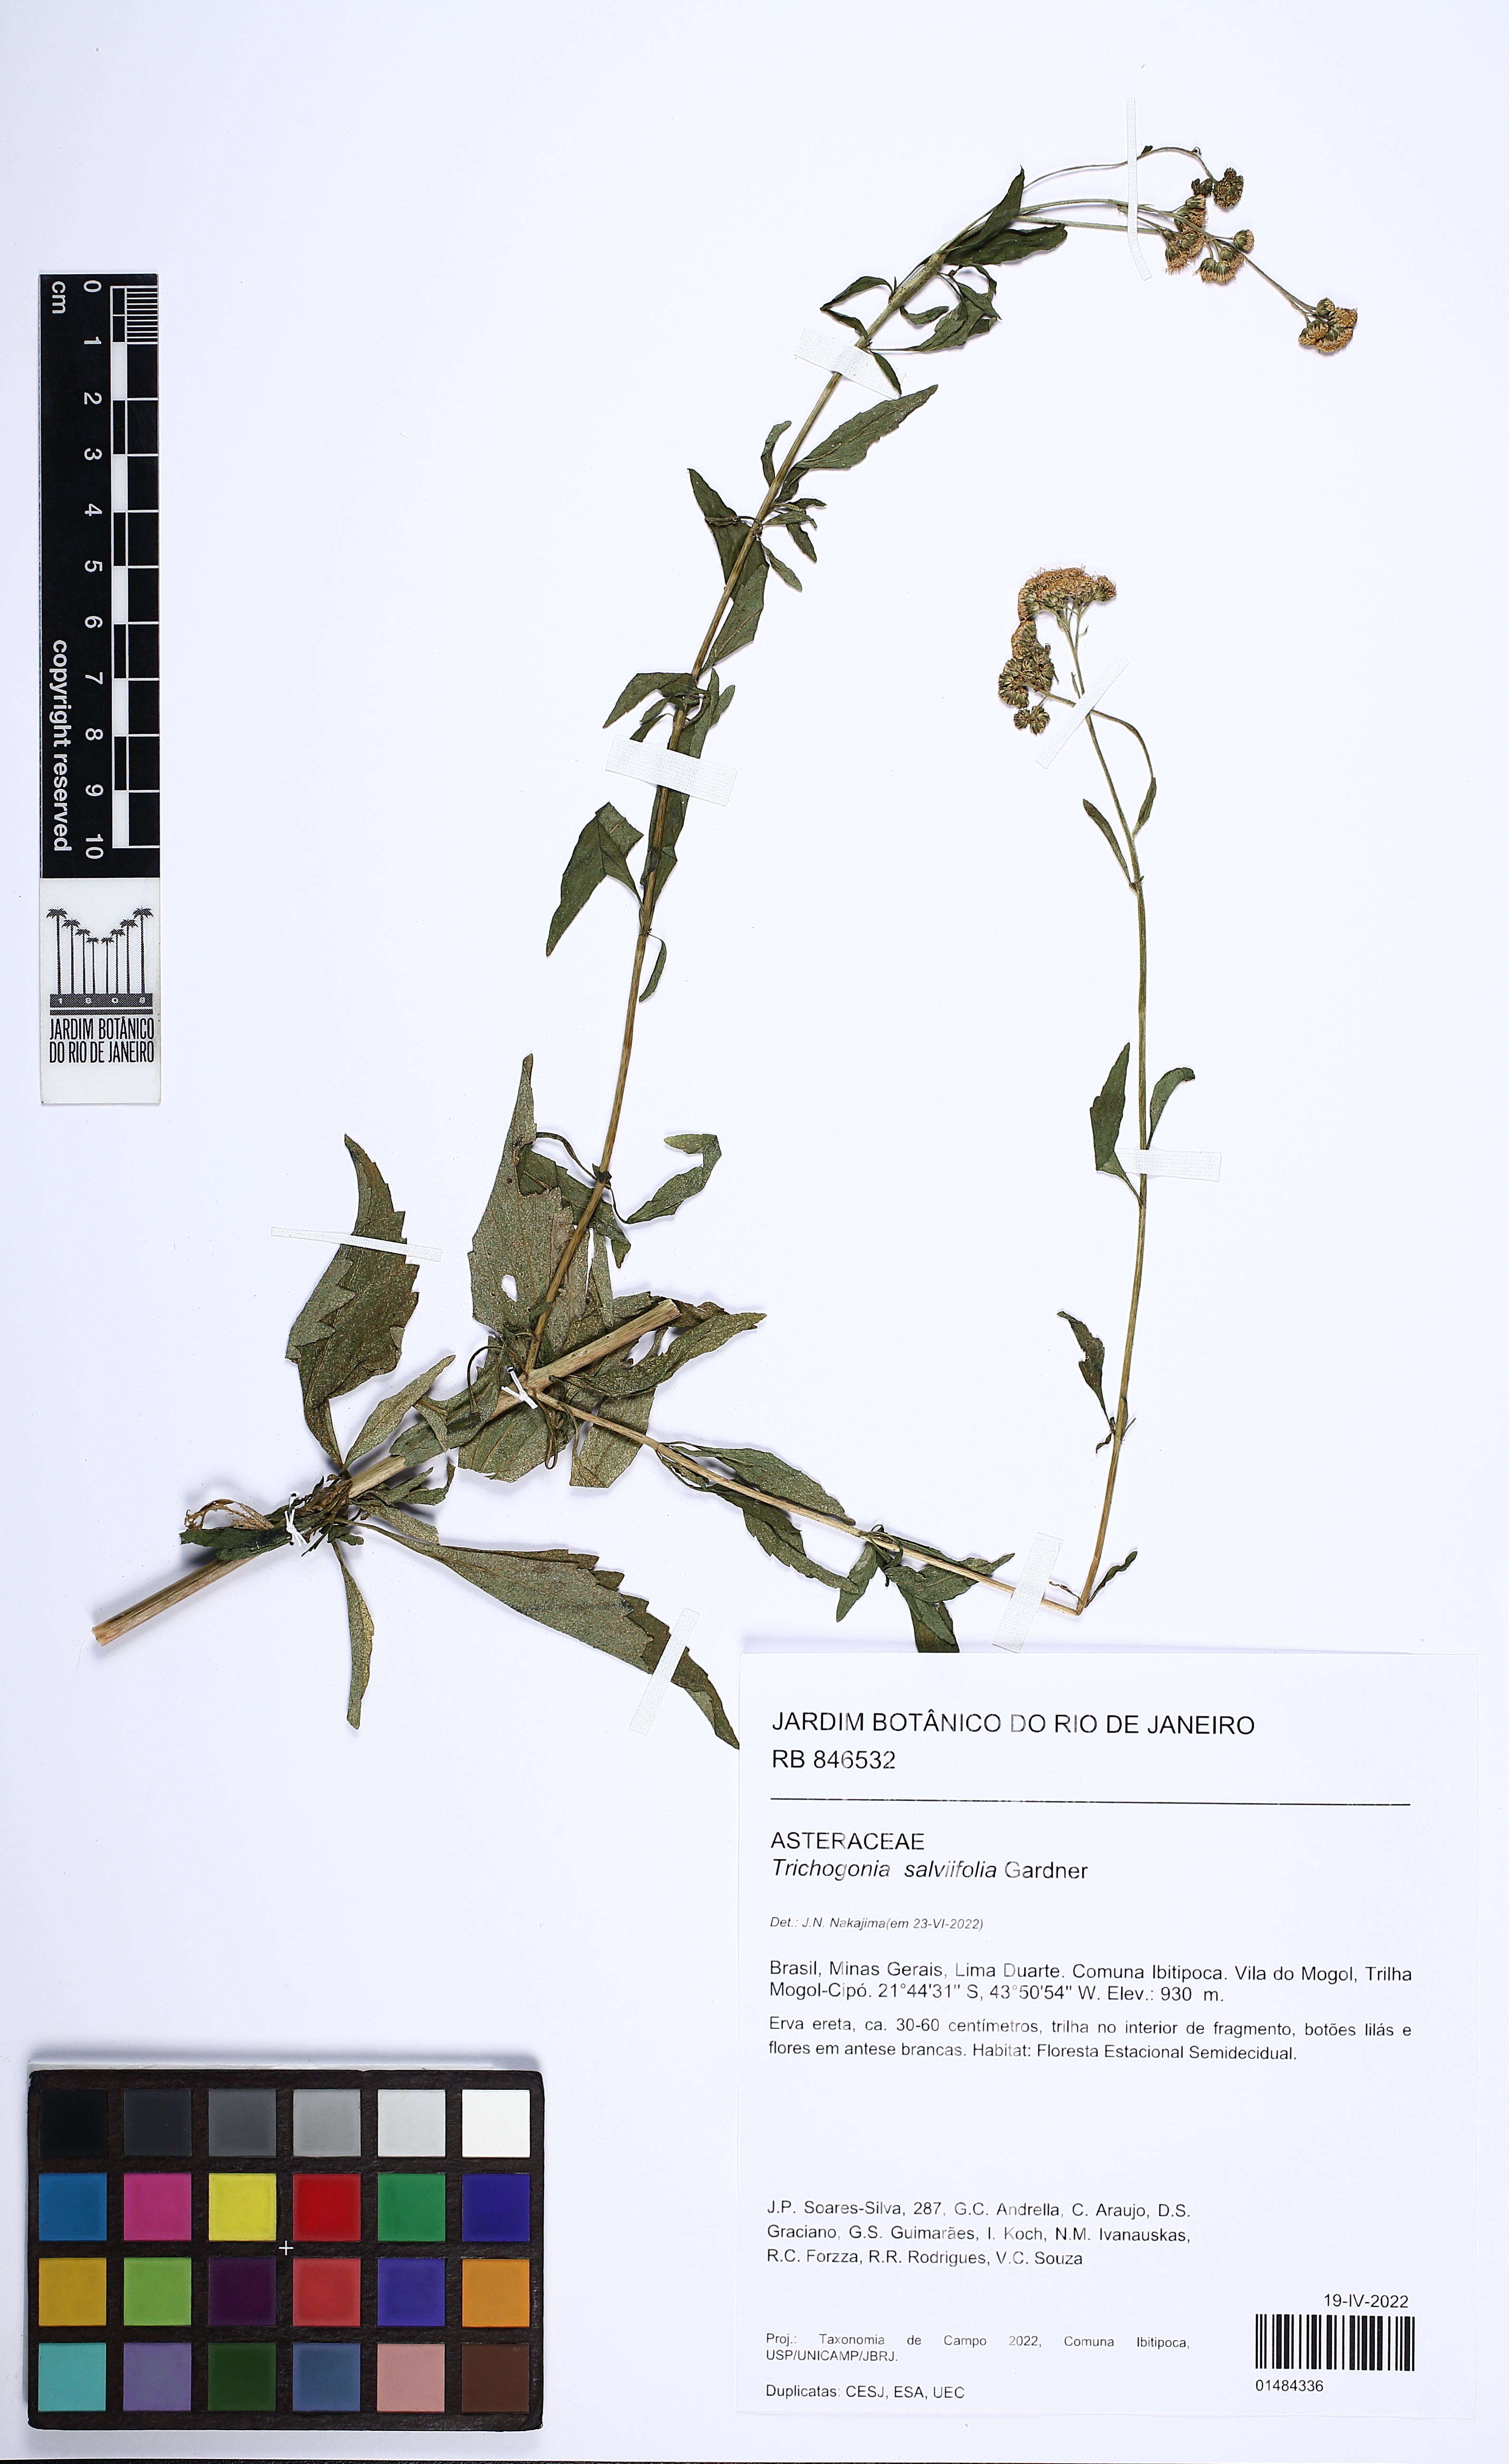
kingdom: Plantae
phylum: Tracheophyta
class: Magnoliopsida
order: Asterales
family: Asteraceae
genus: Trichogonia
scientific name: Trichogonia salviifolia
